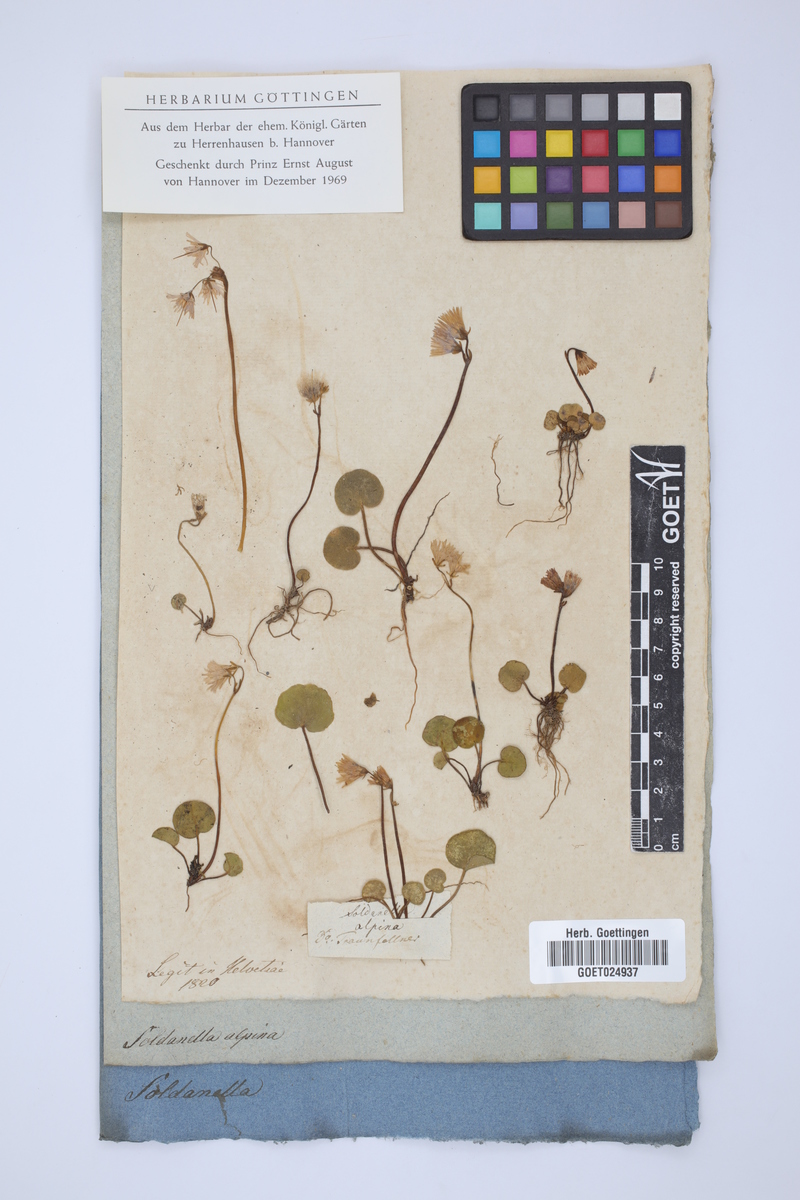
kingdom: Plantae
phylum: Tracheophyta
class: Magnoliopsida
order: Ericales
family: Primulaceae
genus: Soldanella
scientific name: Soldanella alpina
